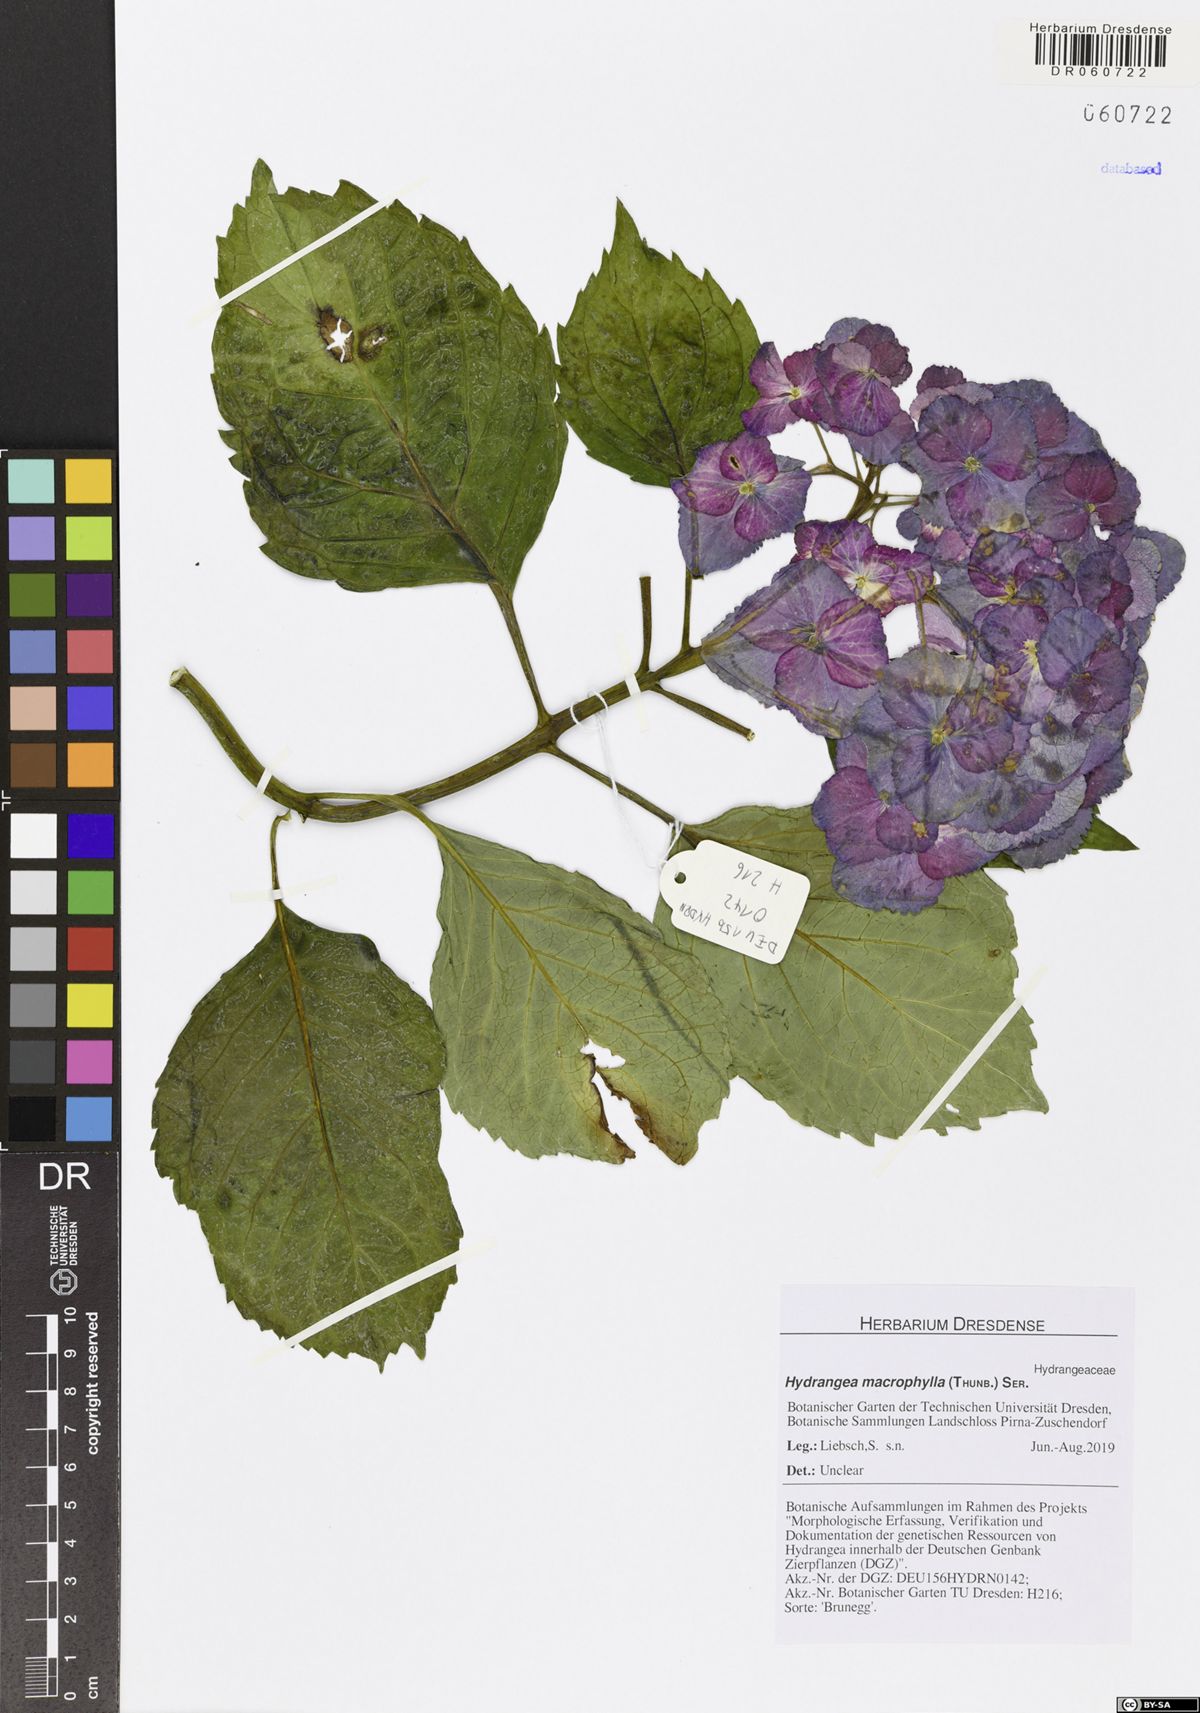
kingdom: Plantae
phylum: Tracheophyta
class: Magnoliopsida
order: Cornales
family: Hydrangeaceae
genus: Hydrangea
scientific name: Hydrangea macrophylla
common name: Hydrangea
